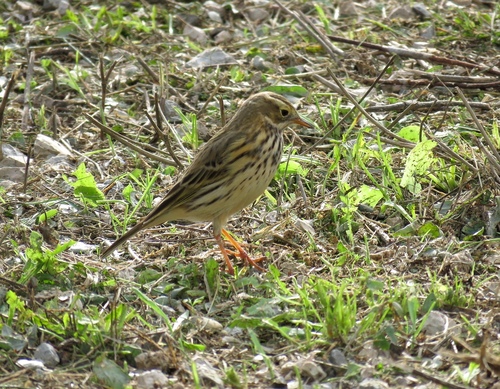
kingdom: Animalia
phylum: Chordata
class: Aves
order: Passeriformes
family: Motacillidae
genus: Anthus
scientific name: Anthus pratensis
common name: Meadow pipit
